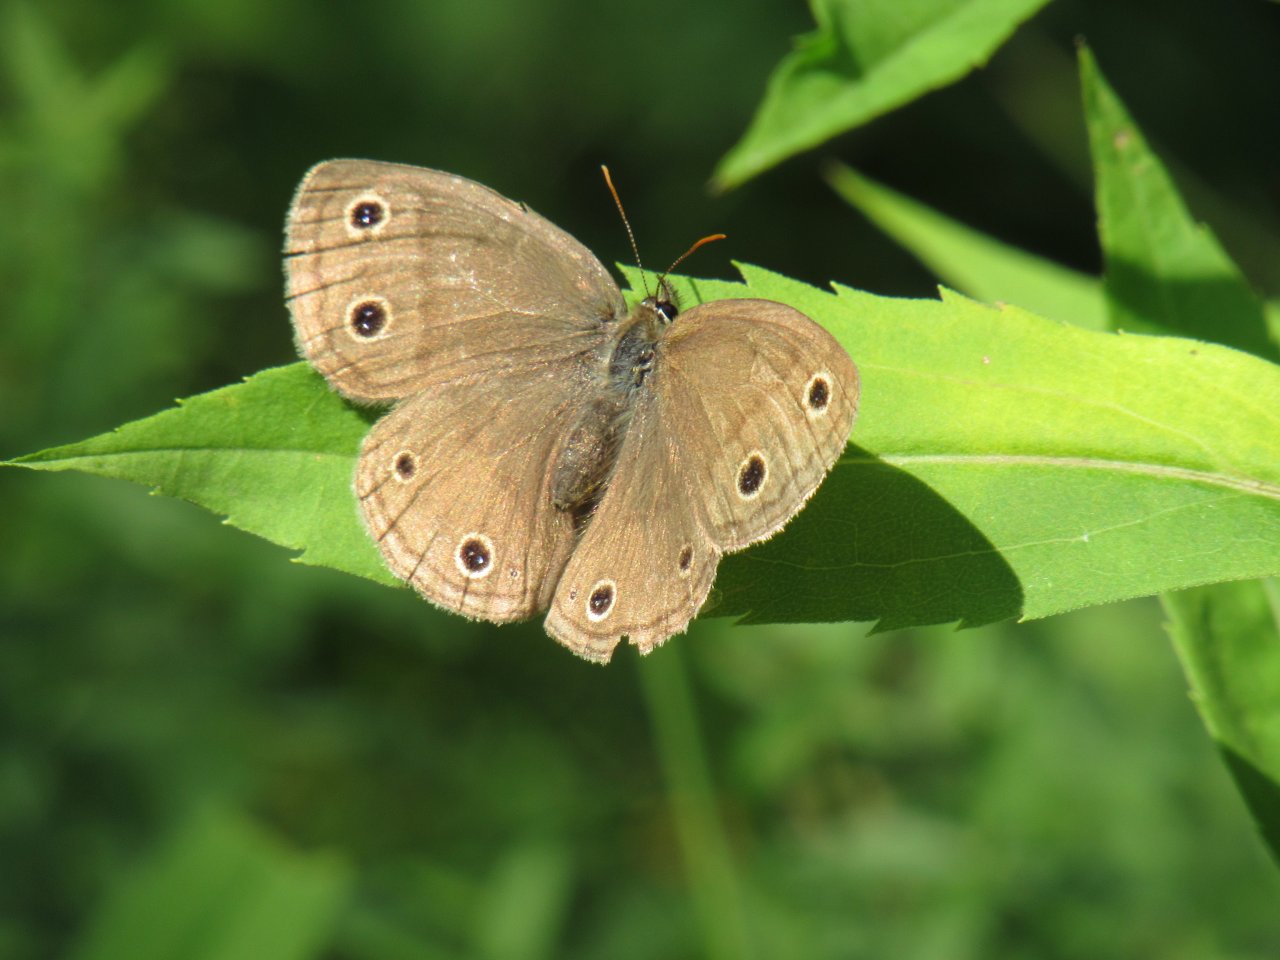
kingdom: Animalia
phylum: Arthropoda
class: Insecta
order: Lepidoptera
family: Nymphalidae
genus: Euptychia
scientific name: Euptychia cymela
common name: Little Wood Satyr
